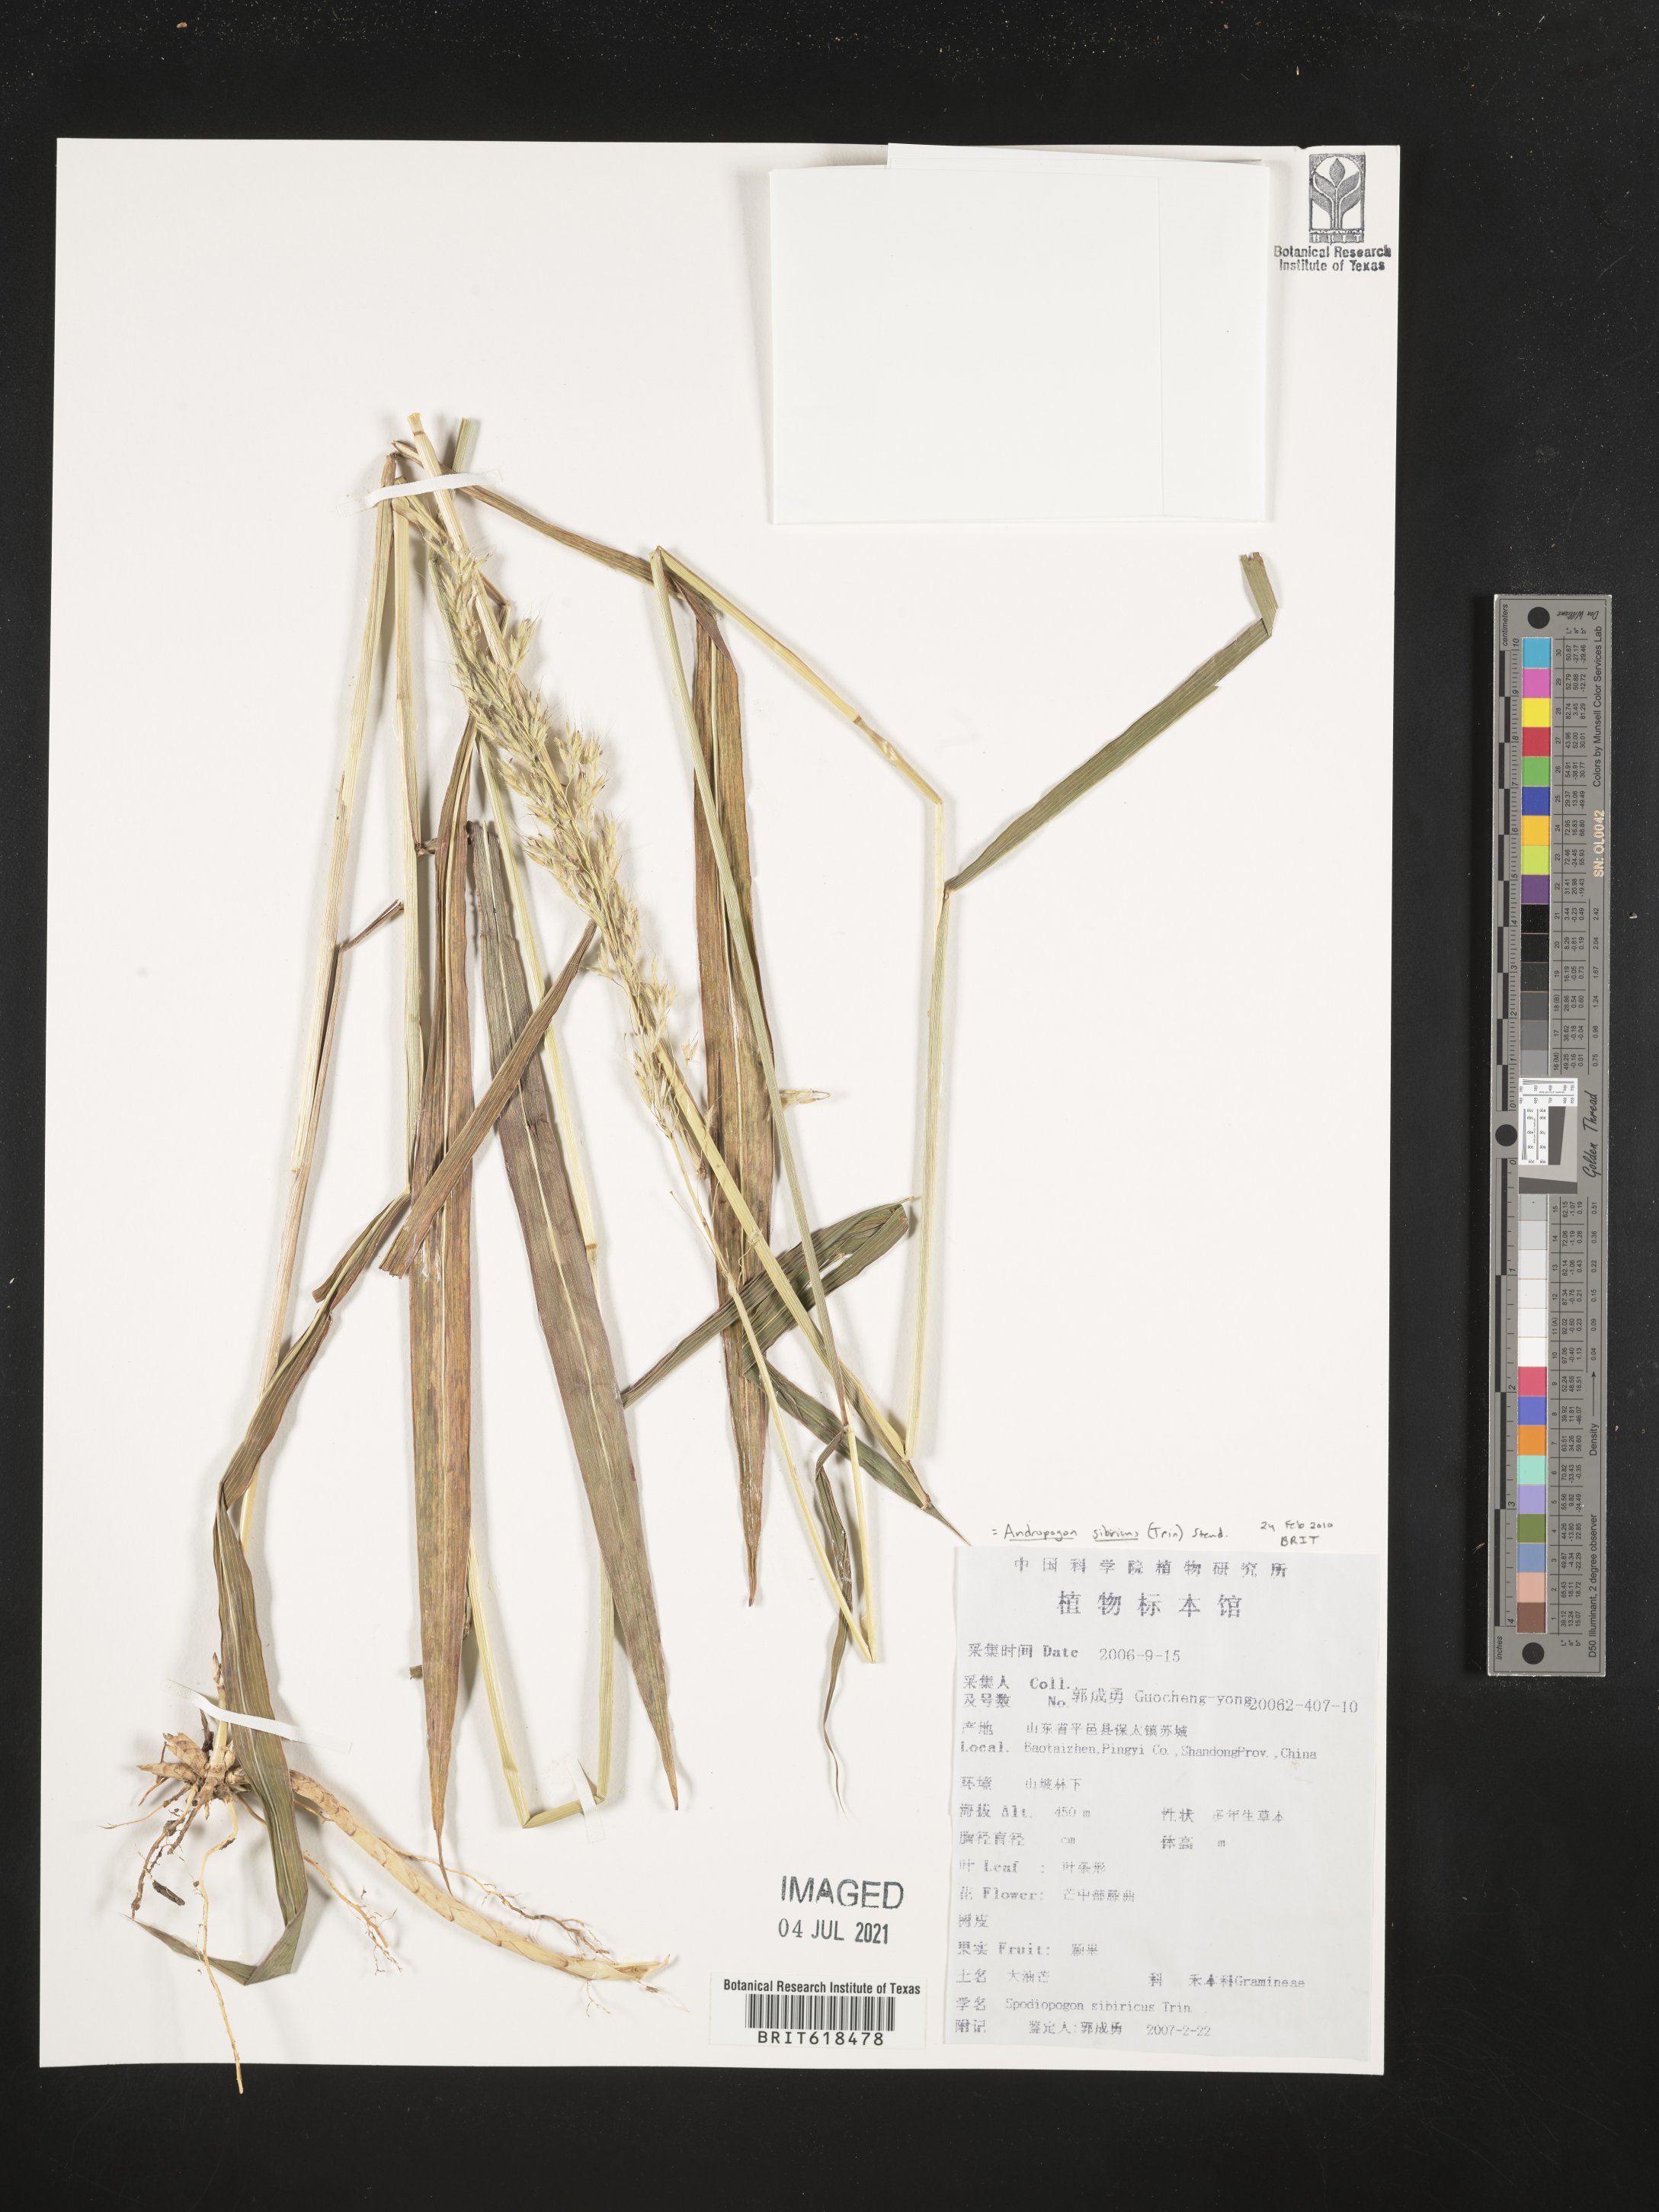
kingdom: Plantae
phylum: Tracheophyta
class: Liliopsida
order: Poales
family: Poaceae
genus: Spodiopogon
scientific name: Spodiopogon sibiricus
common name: Siberian graybeard
